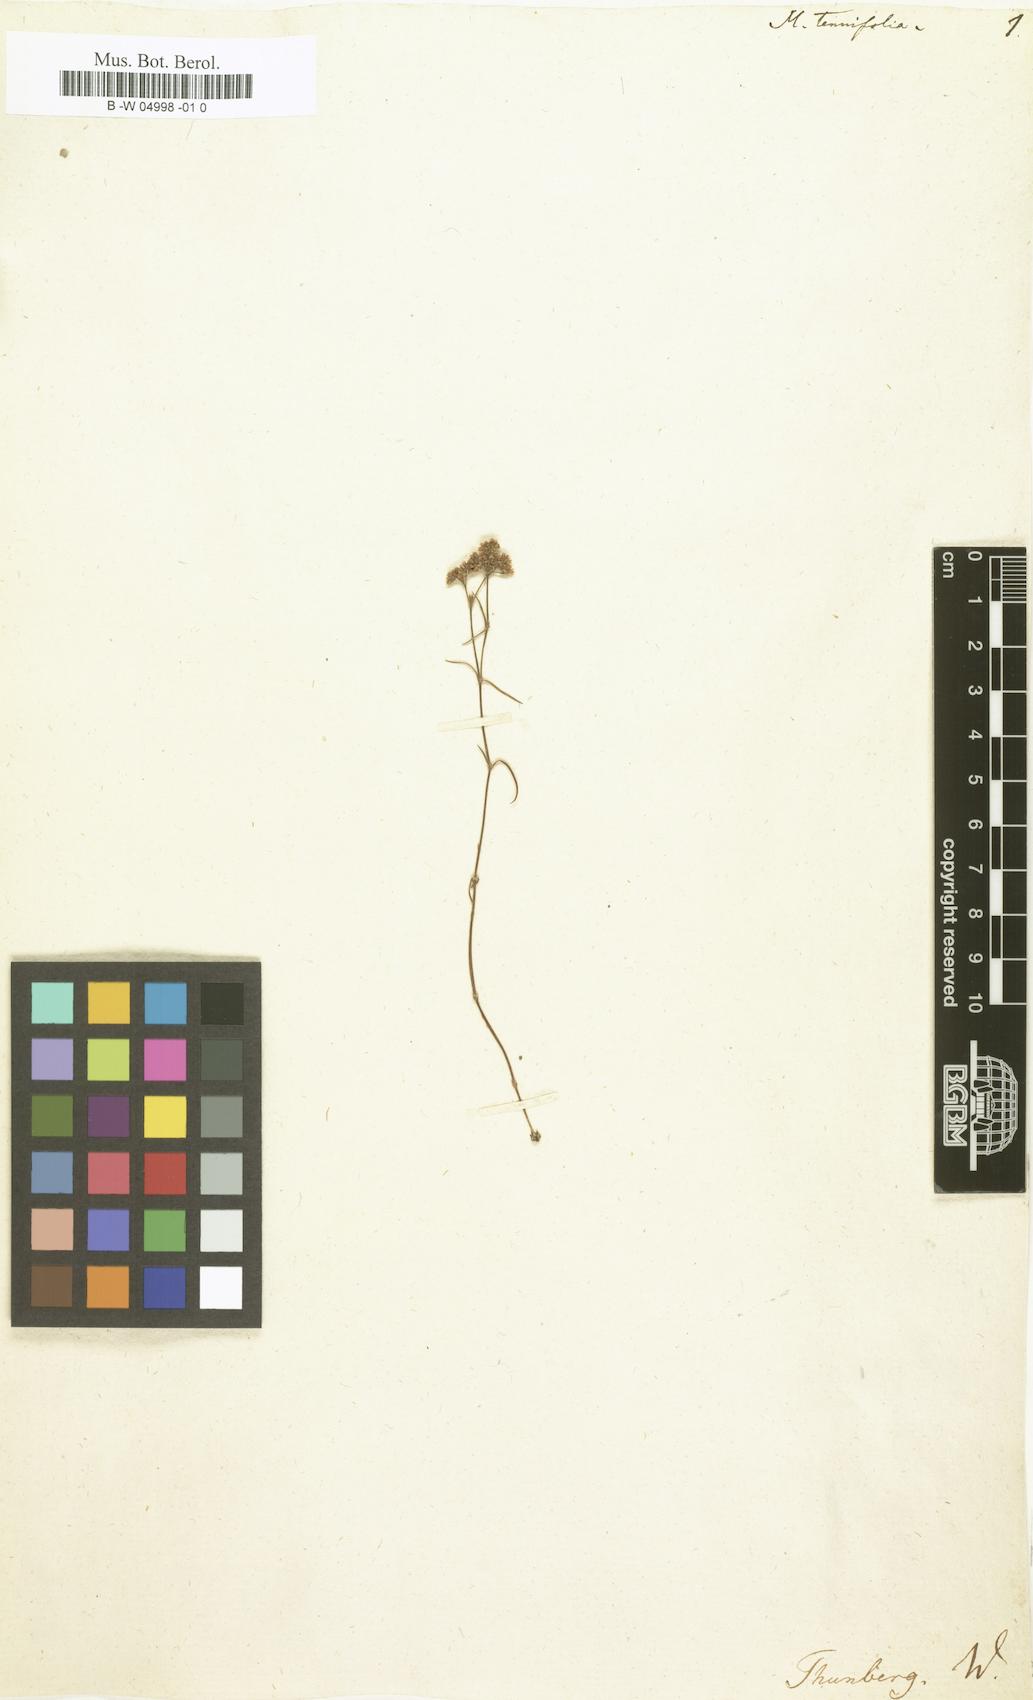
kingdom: Plantae
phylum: Tracheophyta
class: Magnoliopsida
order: Caryophyllales
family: Caryophyllaceae
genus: Polycarpaea
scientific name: Polycarpaea tenuifolia
